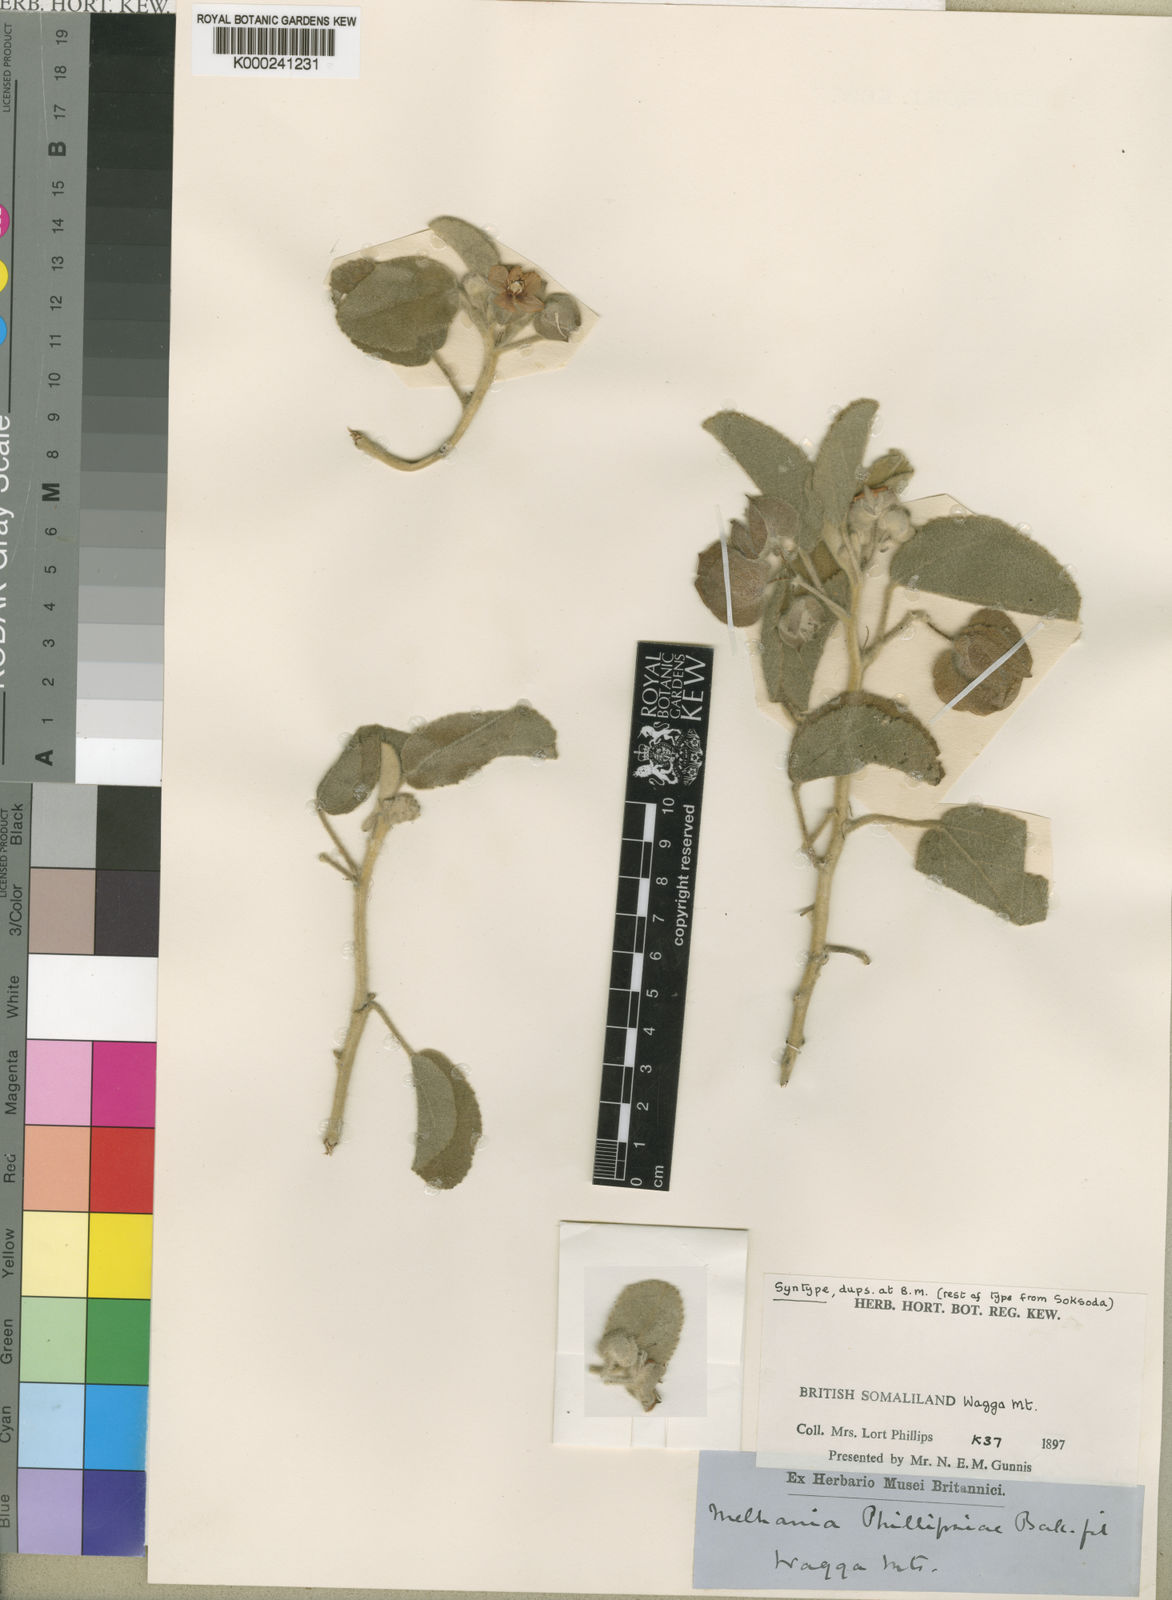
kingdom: Plantae
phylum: Tracheophyta
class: Magnoliopsida
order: Malvales
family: Malvaceae
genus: Melhania
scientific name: Melhania phillipsiae
